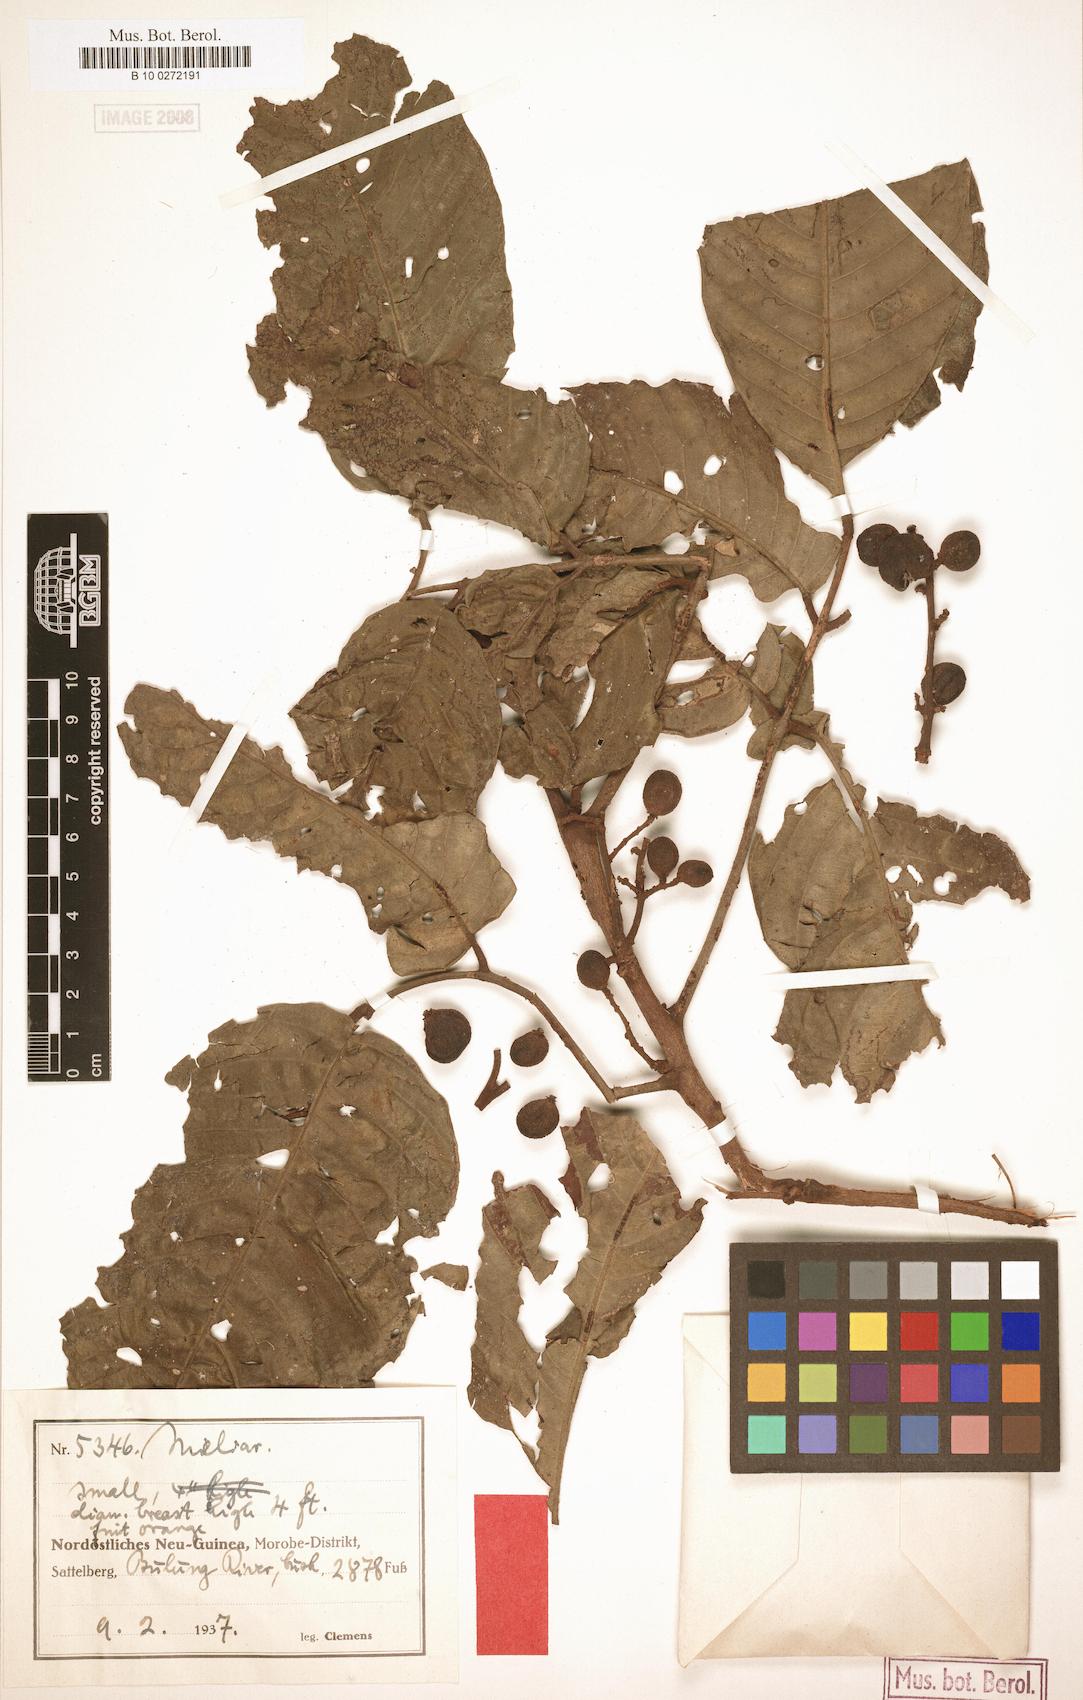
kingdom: Plantae
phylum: Tracheophyta
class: Magnoliopsida
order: Sapindales
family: Meliaceae
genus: Aglaia
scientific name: Aglaia polyneura
